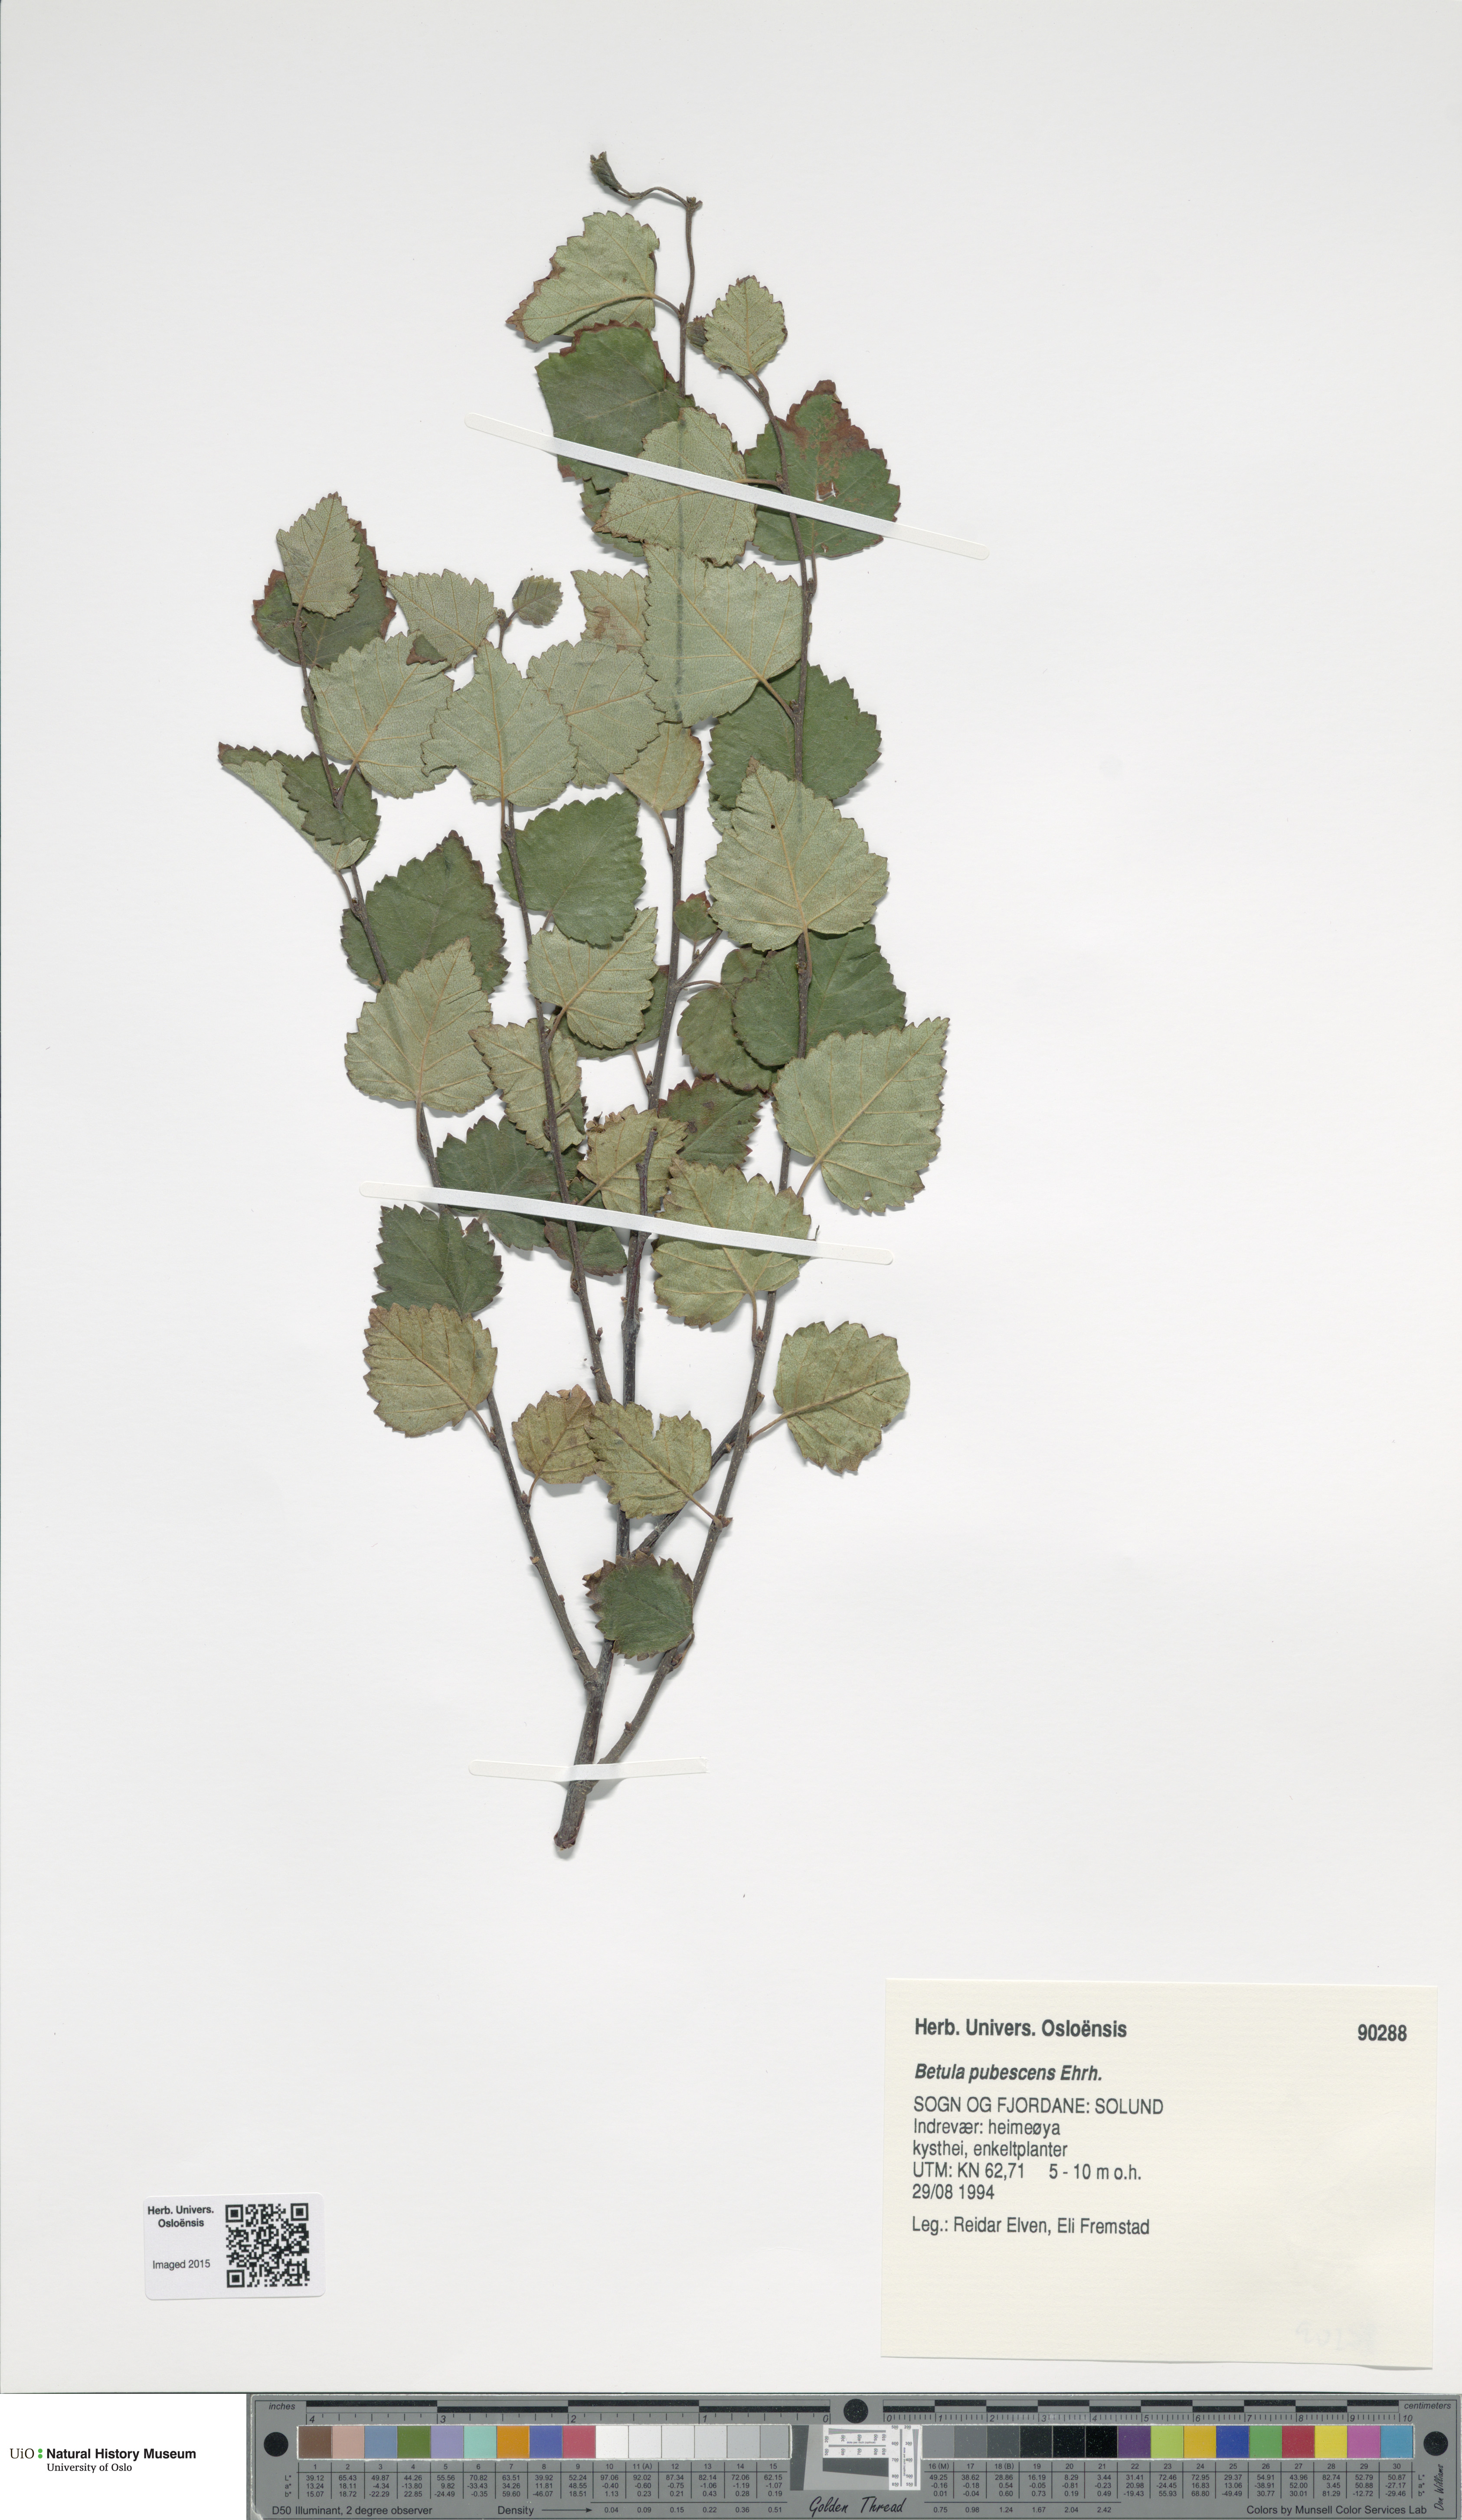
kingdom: Plantae
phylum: Tracheophyta
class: Magnoliopsida
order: Fagales
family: Betulaceae
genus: Betula
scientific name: Betula pubescens
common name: Downy birch
